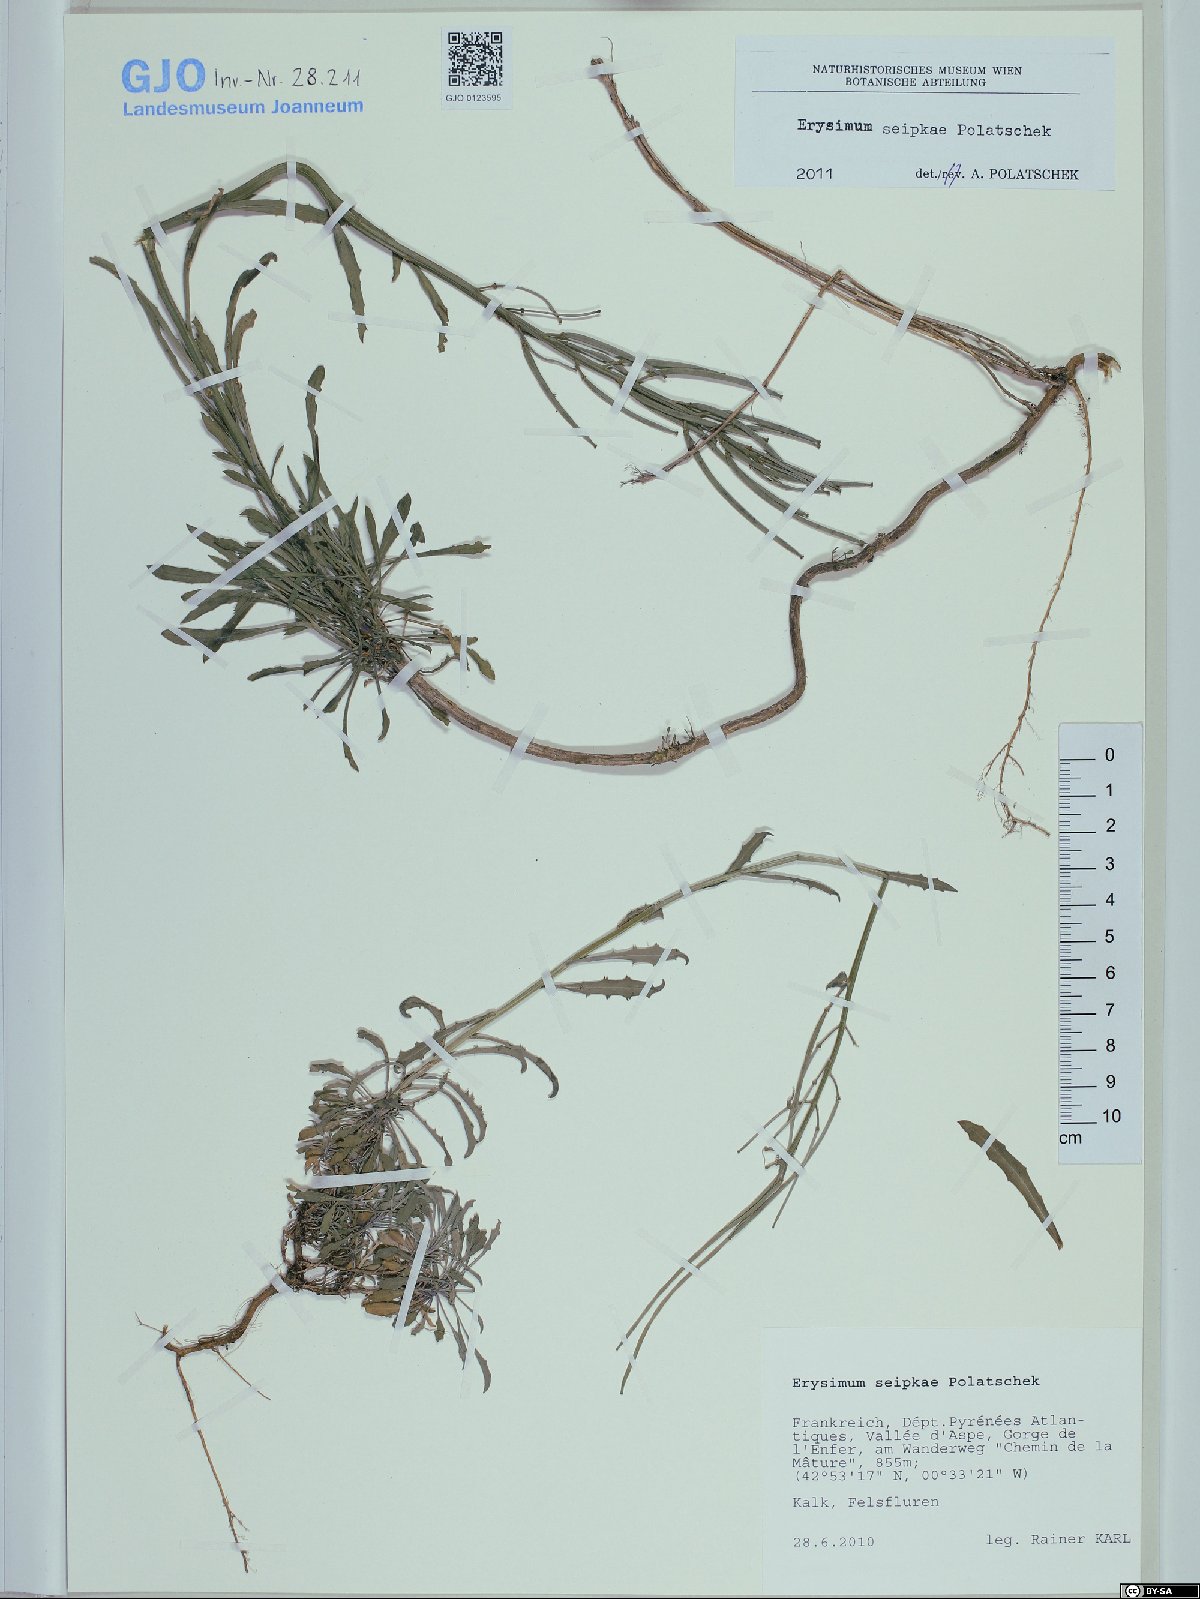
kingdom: Plantae
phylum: Tracheophyta
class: Magnoliopsida
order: Brassicales
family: Brassicaceae
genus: Erysimum
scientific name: Erysimum seipkae
